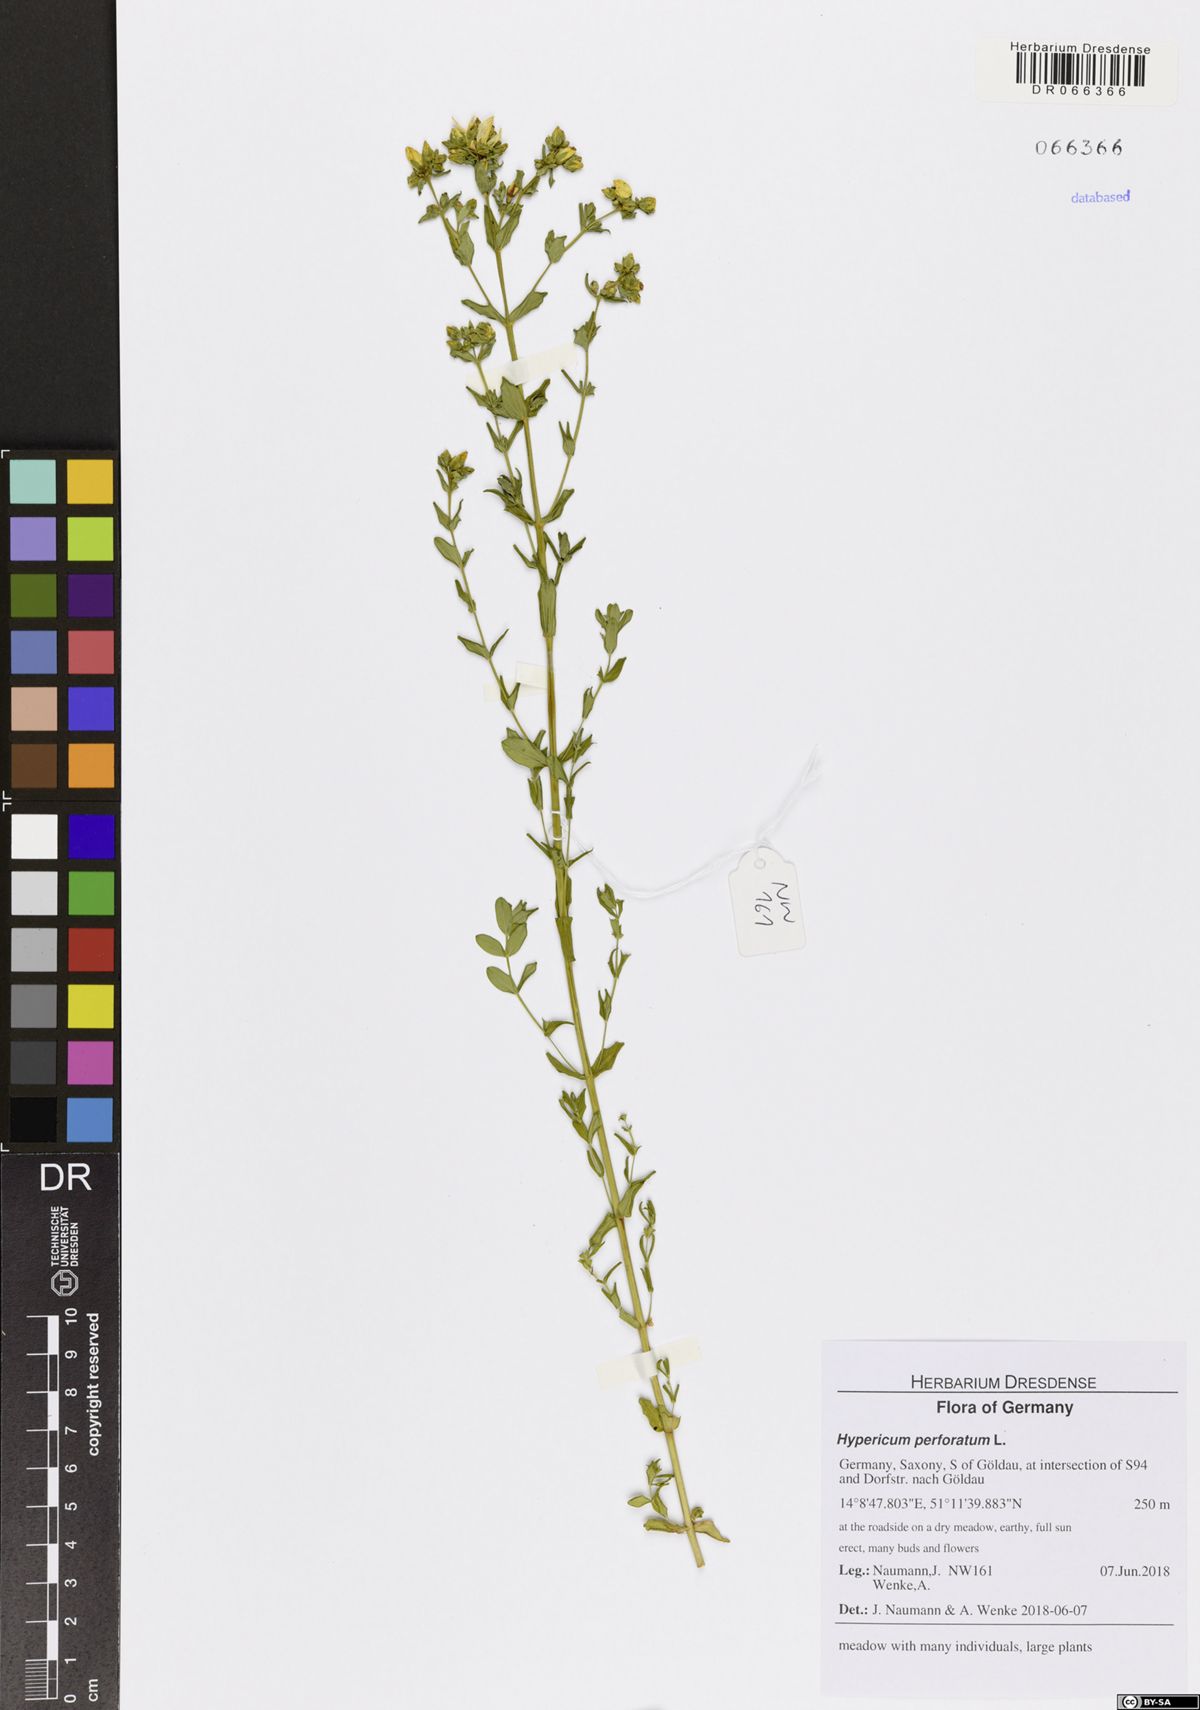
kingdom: Plantae
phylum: Tracheophyta
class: Magnoliopsida
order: Malpighiales
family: Hypericaceae
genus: Hypericum
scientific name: Hypericum perforatum
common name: Common st. johnswort
